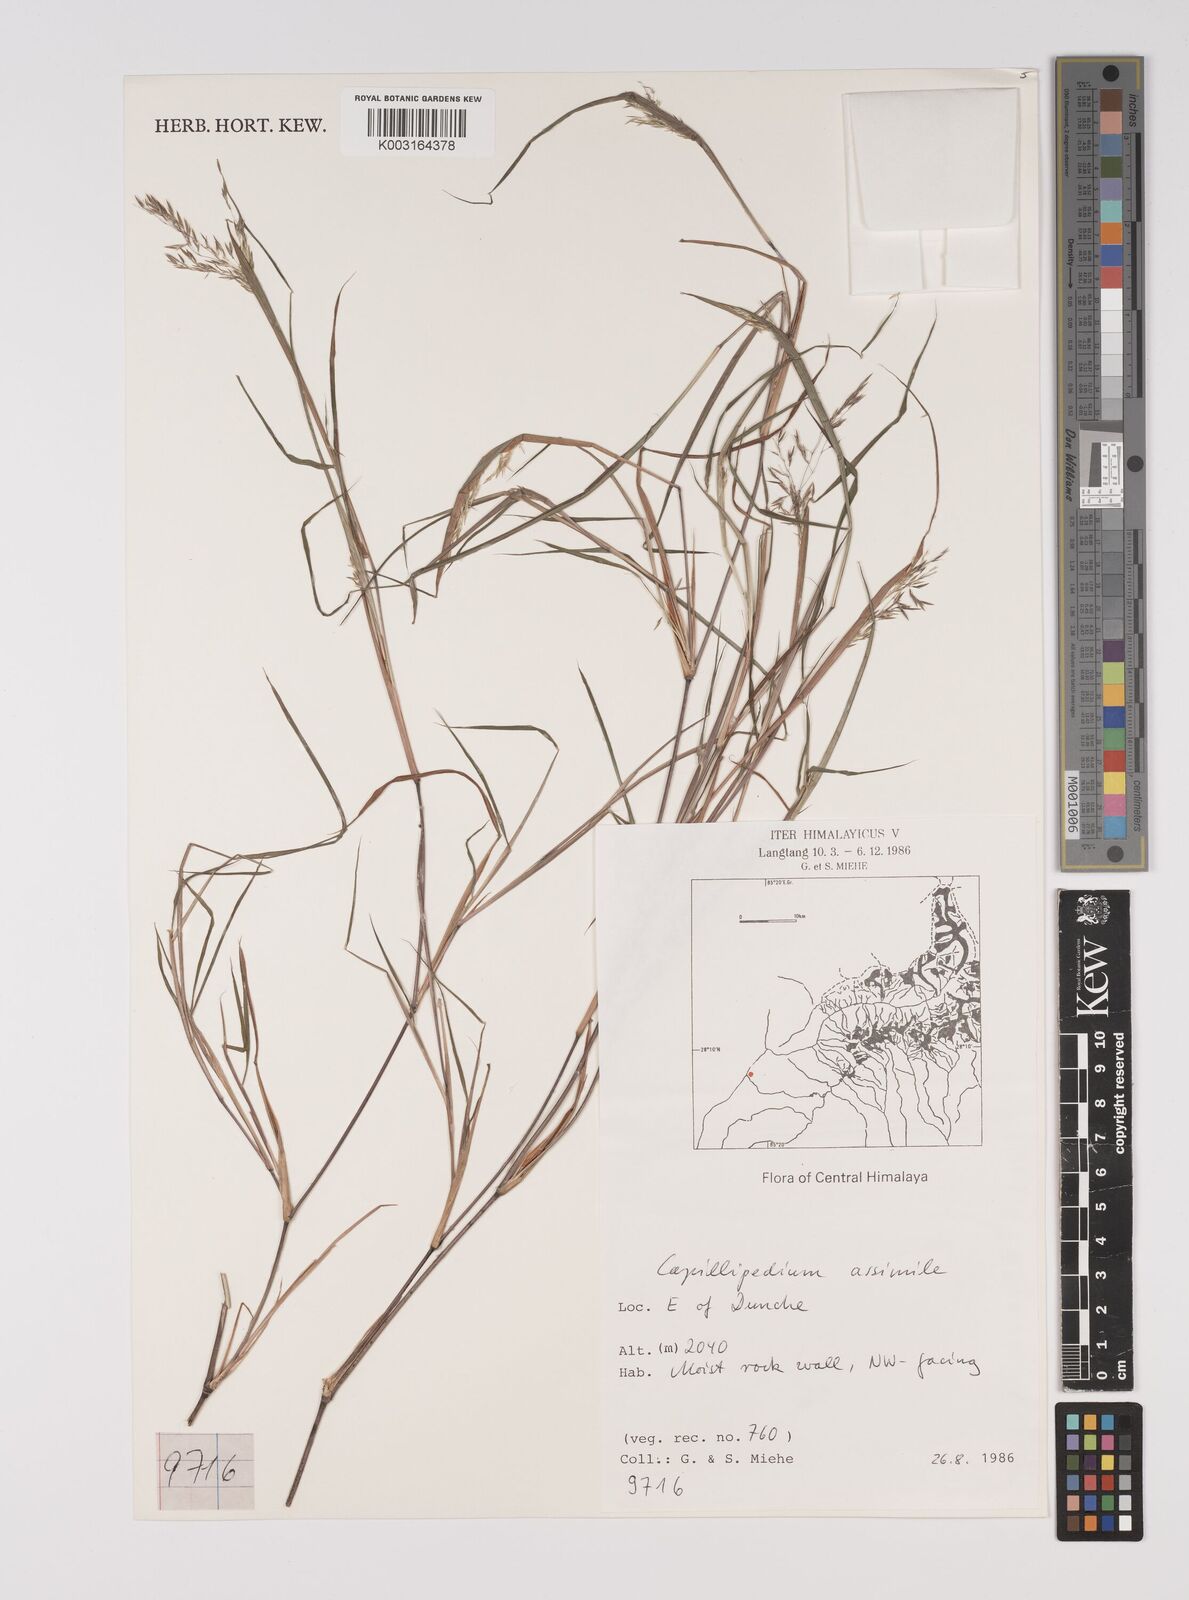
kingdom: Plantae
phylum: Tracheophyta
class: Liliopsida
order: Poales
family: Poaceae
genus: Capillipedium
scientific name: Capillipedium assimile
